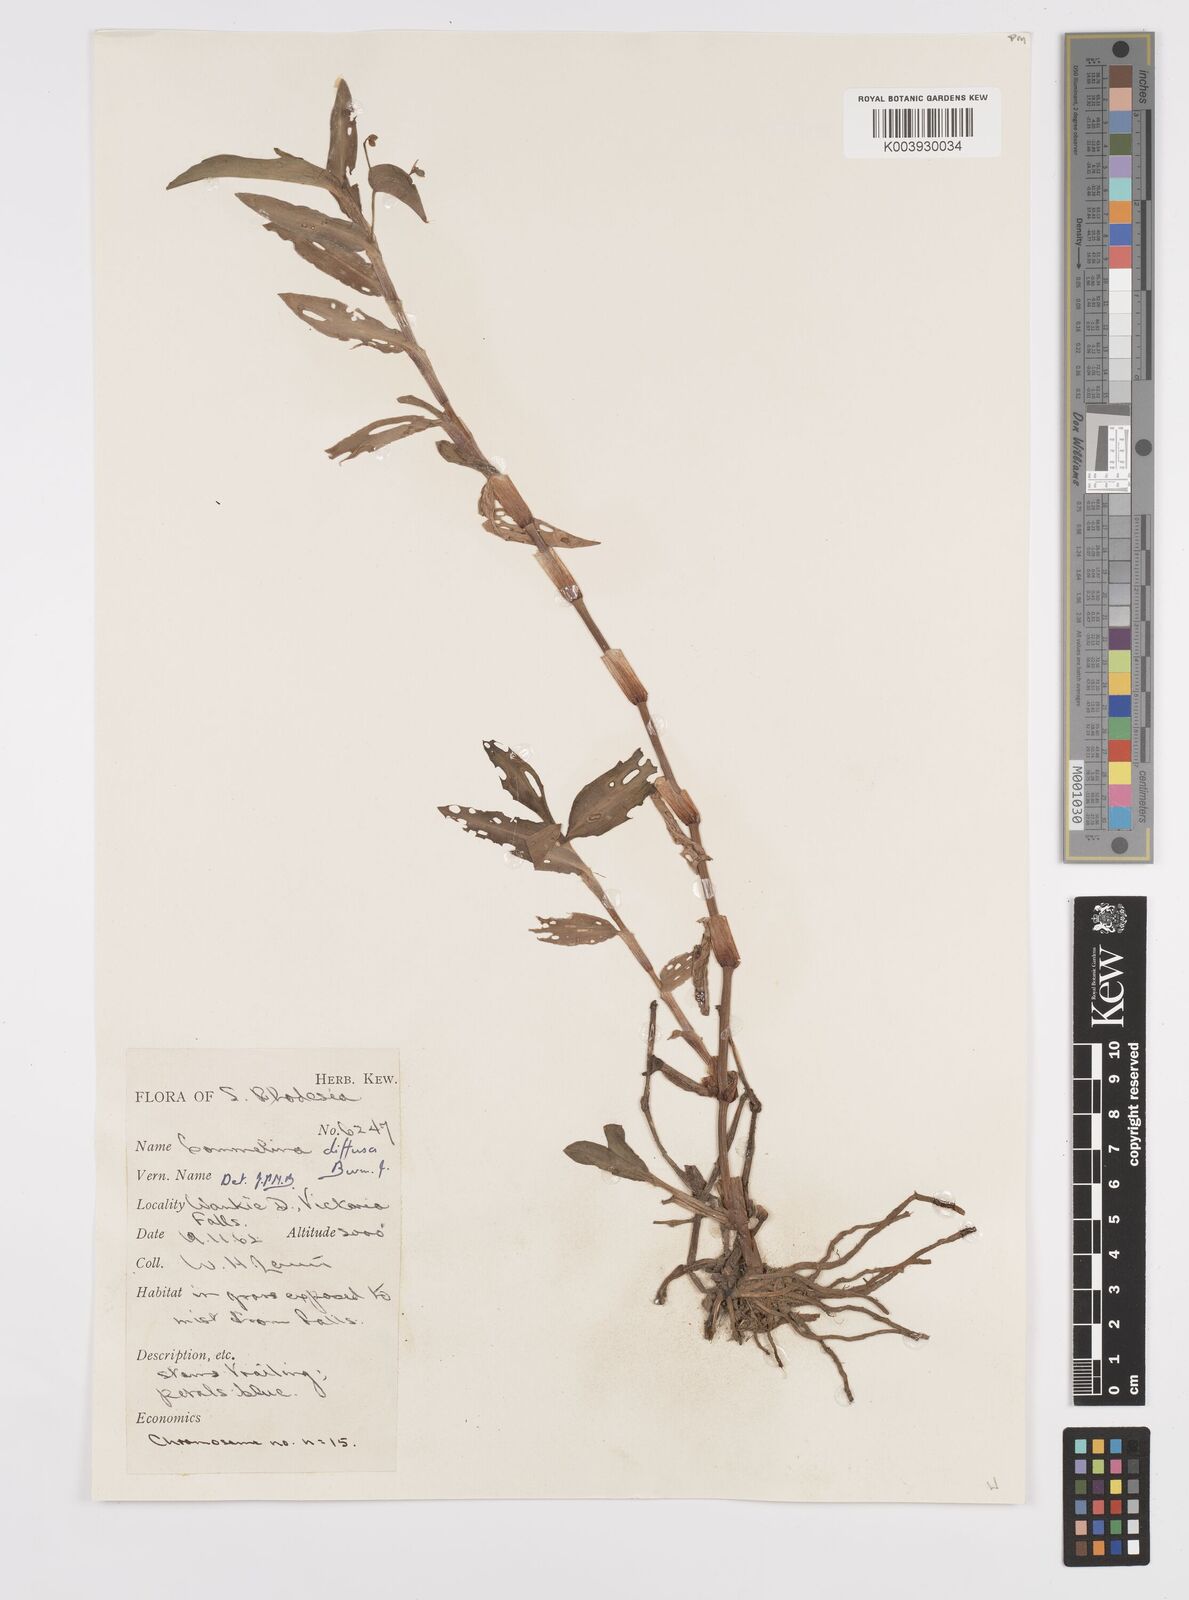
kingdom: Plantae
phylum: Tracheophyta
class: Liliopsida
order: Commelinales
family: Commelinaceae
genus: Commelina
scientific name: Commelina diffusa
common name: Climbing dayflower
